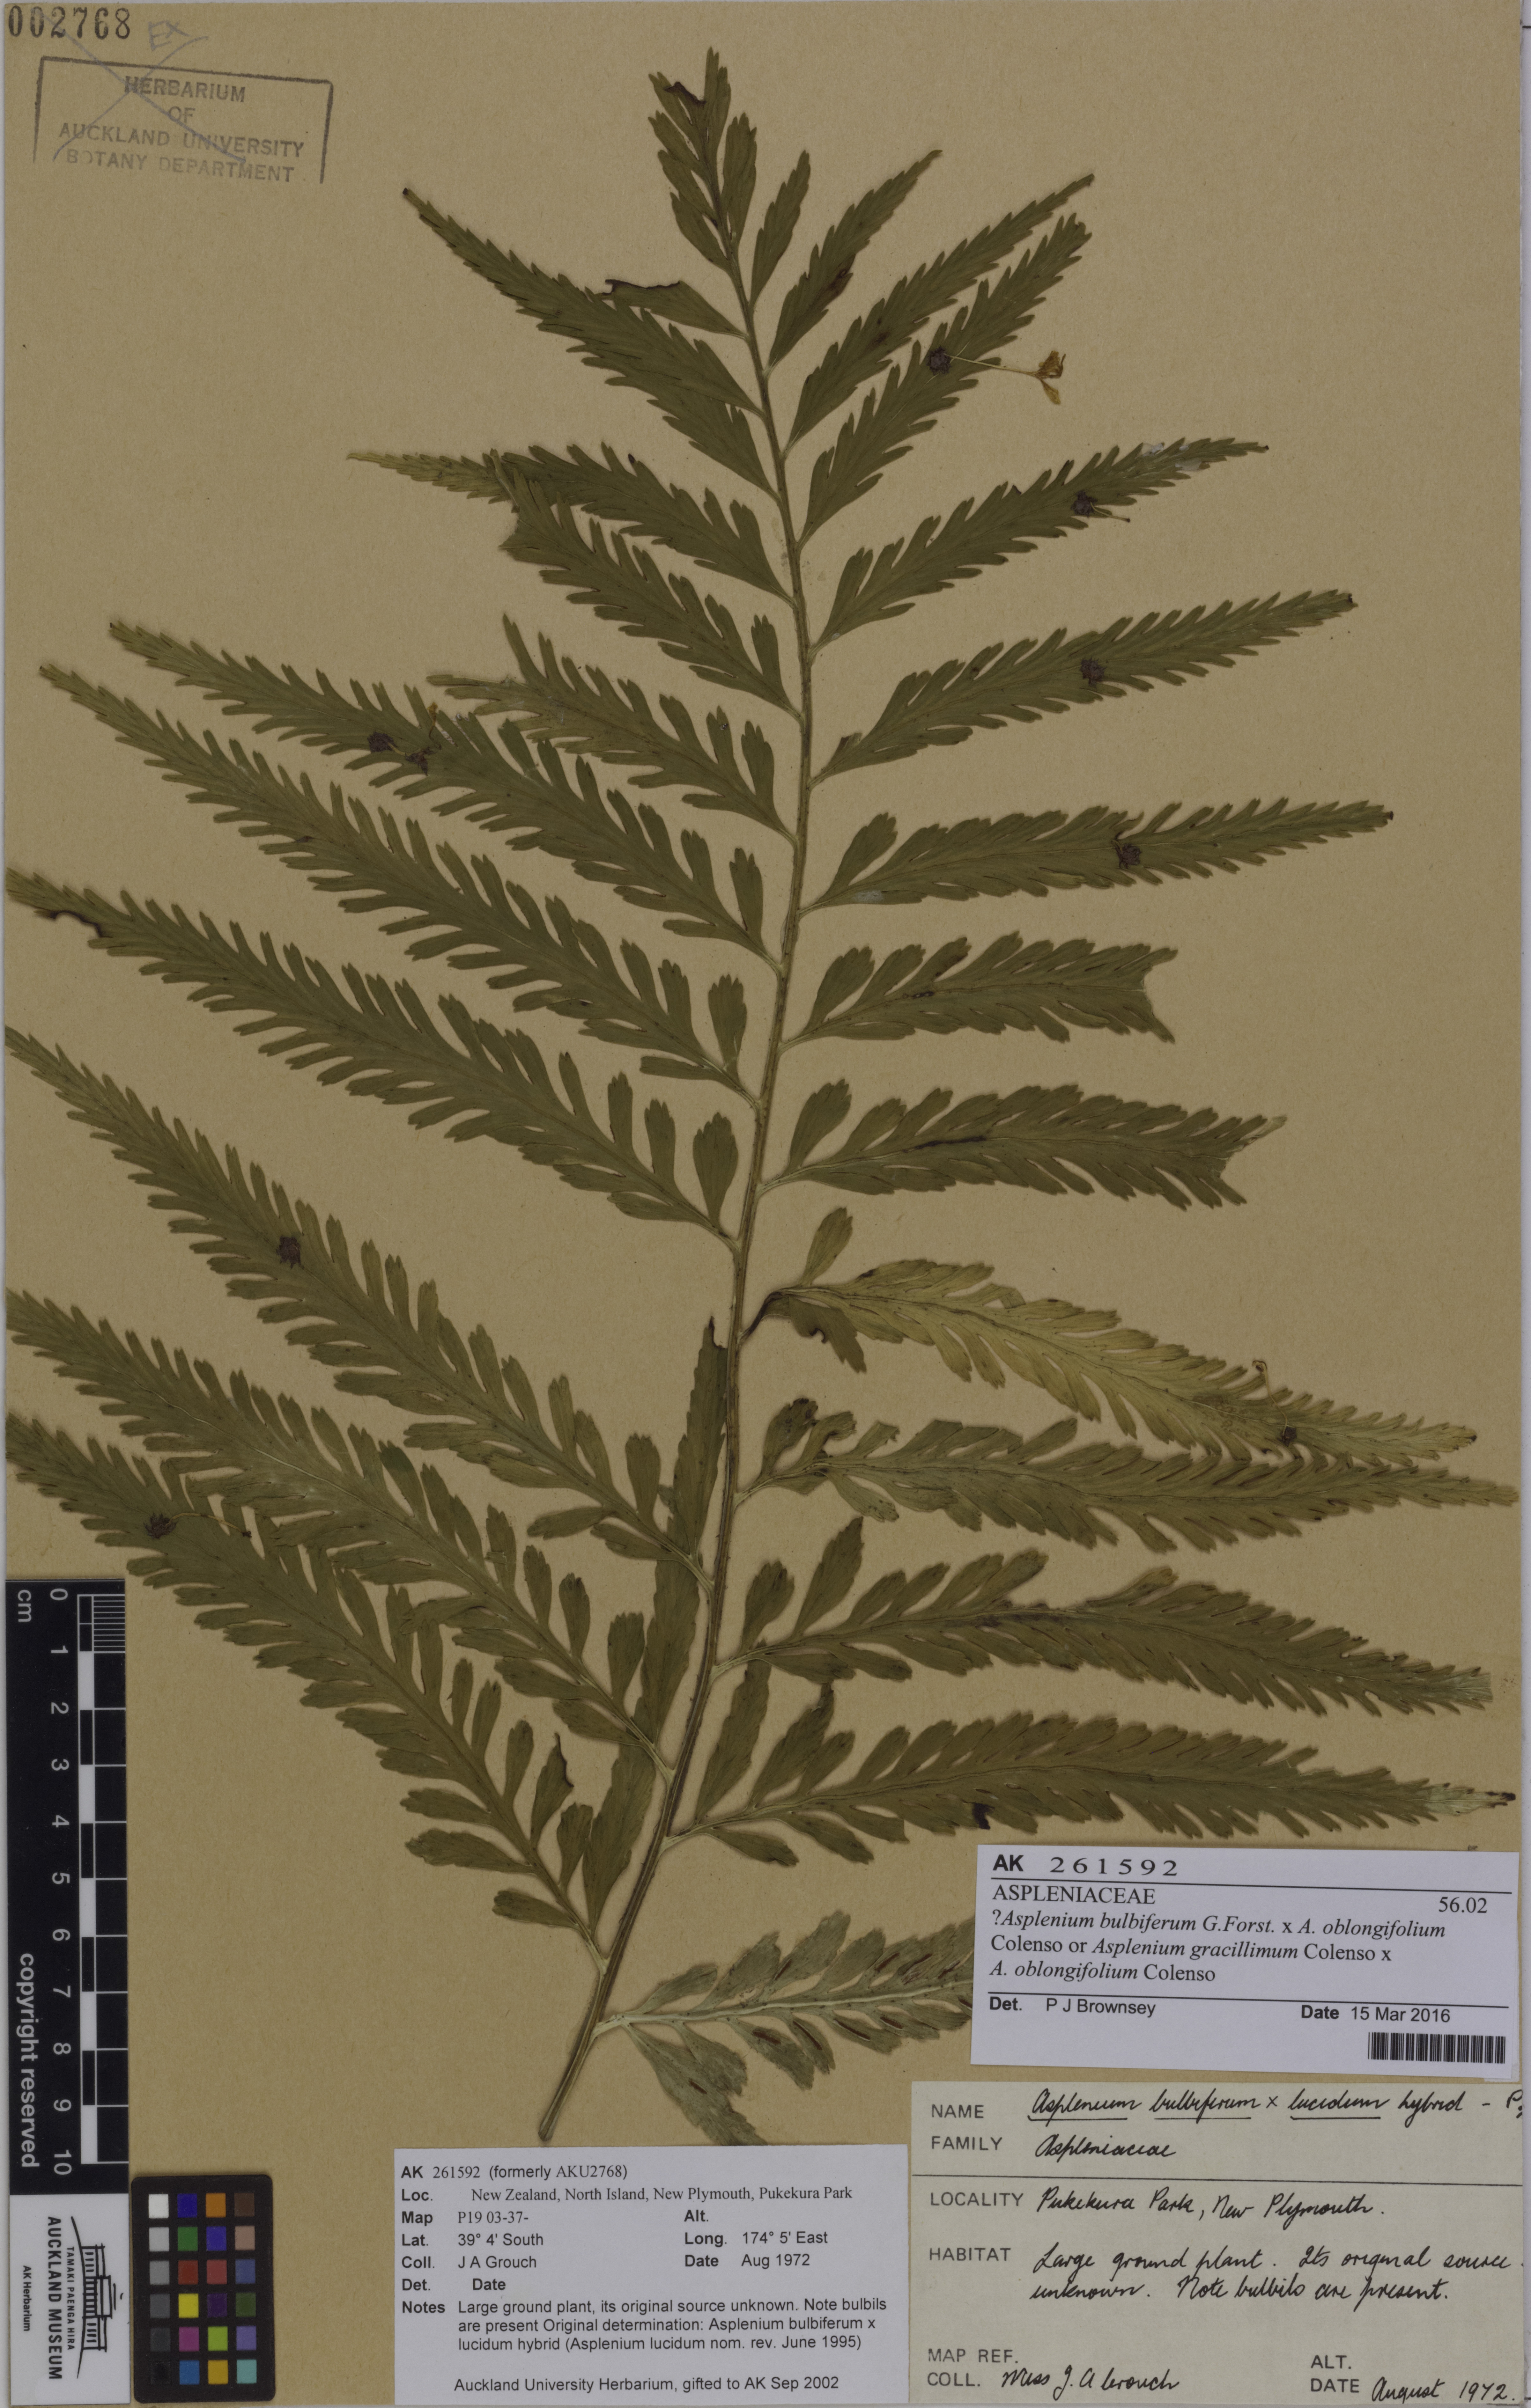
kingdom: Plantae
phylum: Tracheophyta
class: Polypodiopsida
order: Polypodiales
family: Aspleniaceae
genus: Asplenium
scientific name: Asplenium
